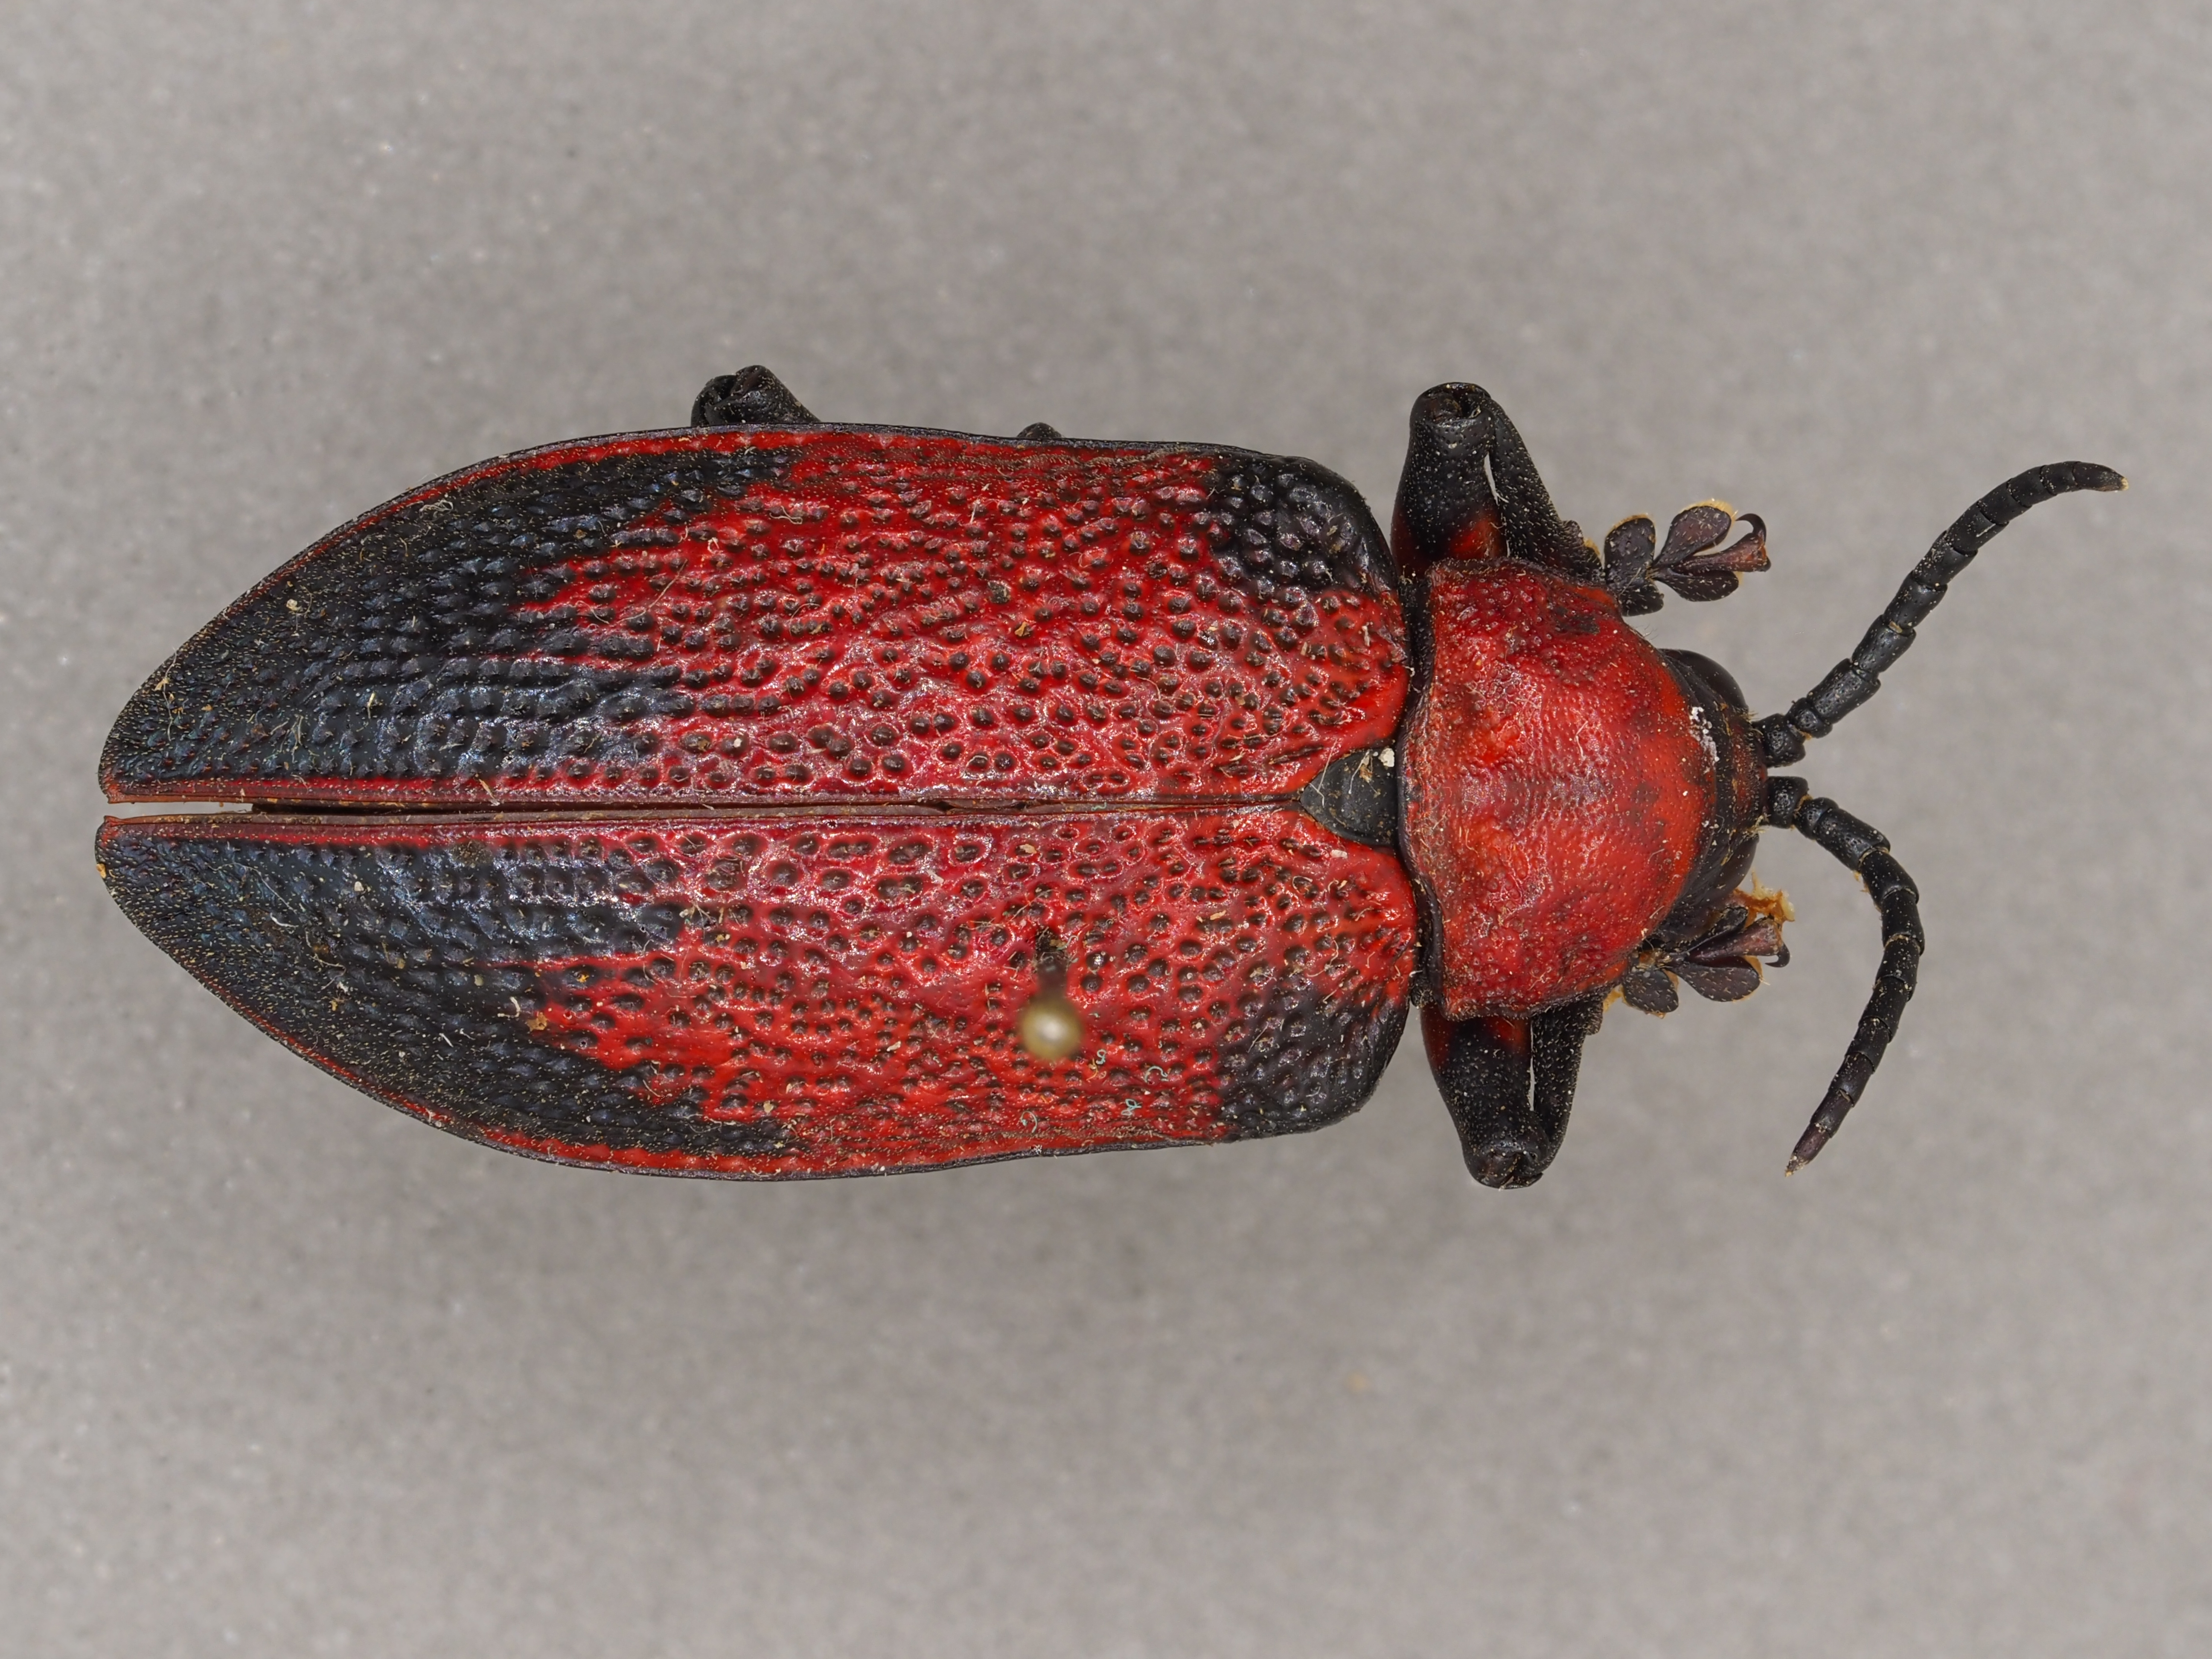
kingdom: Animalia
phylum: Arthropoda
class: Insecta
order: Coleoptera
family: Chrysomelidae
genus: Coraliomela
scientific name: Coraliomela brunnea
